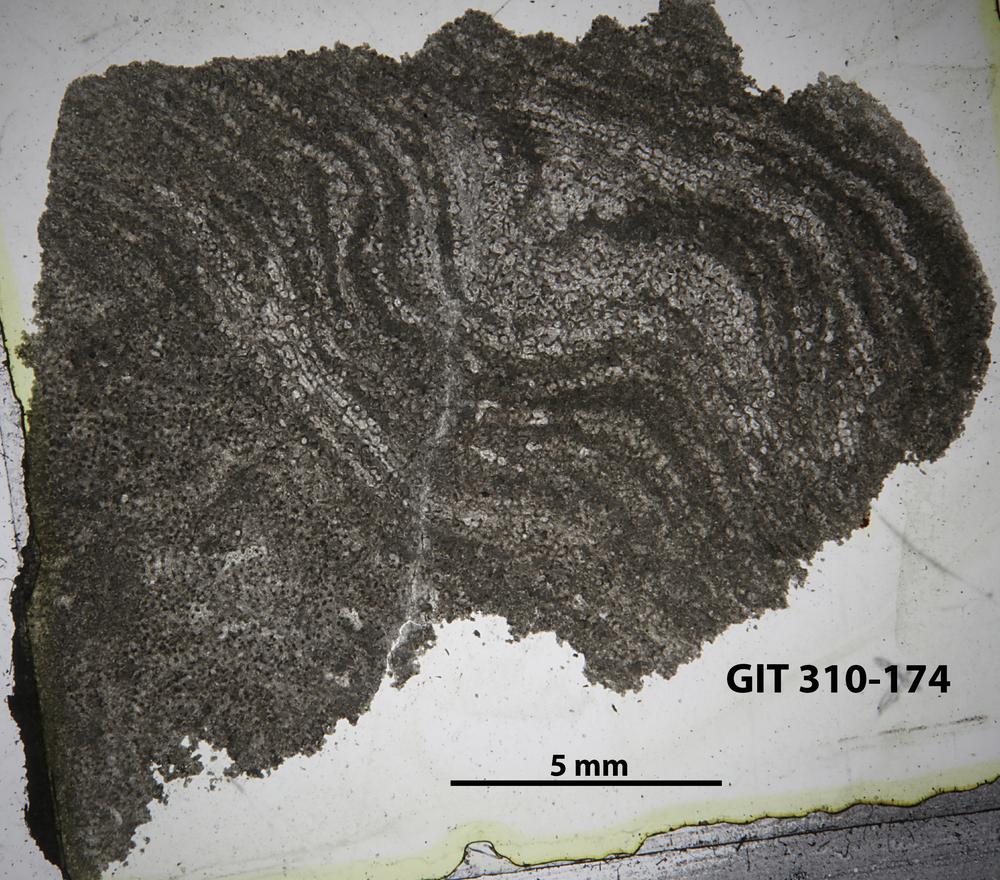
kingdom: Animalia
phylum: Porifera
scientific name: Porifera
